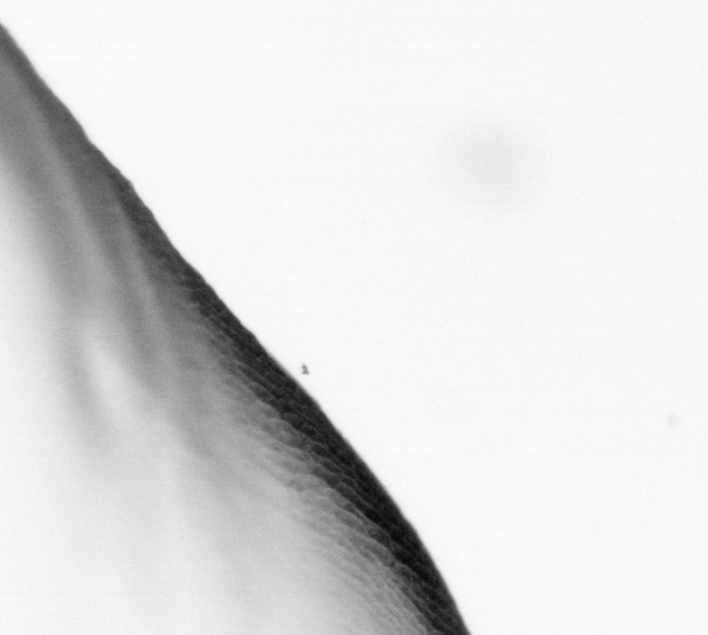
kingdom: Animalia
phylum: Chordata
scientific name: Chordata
